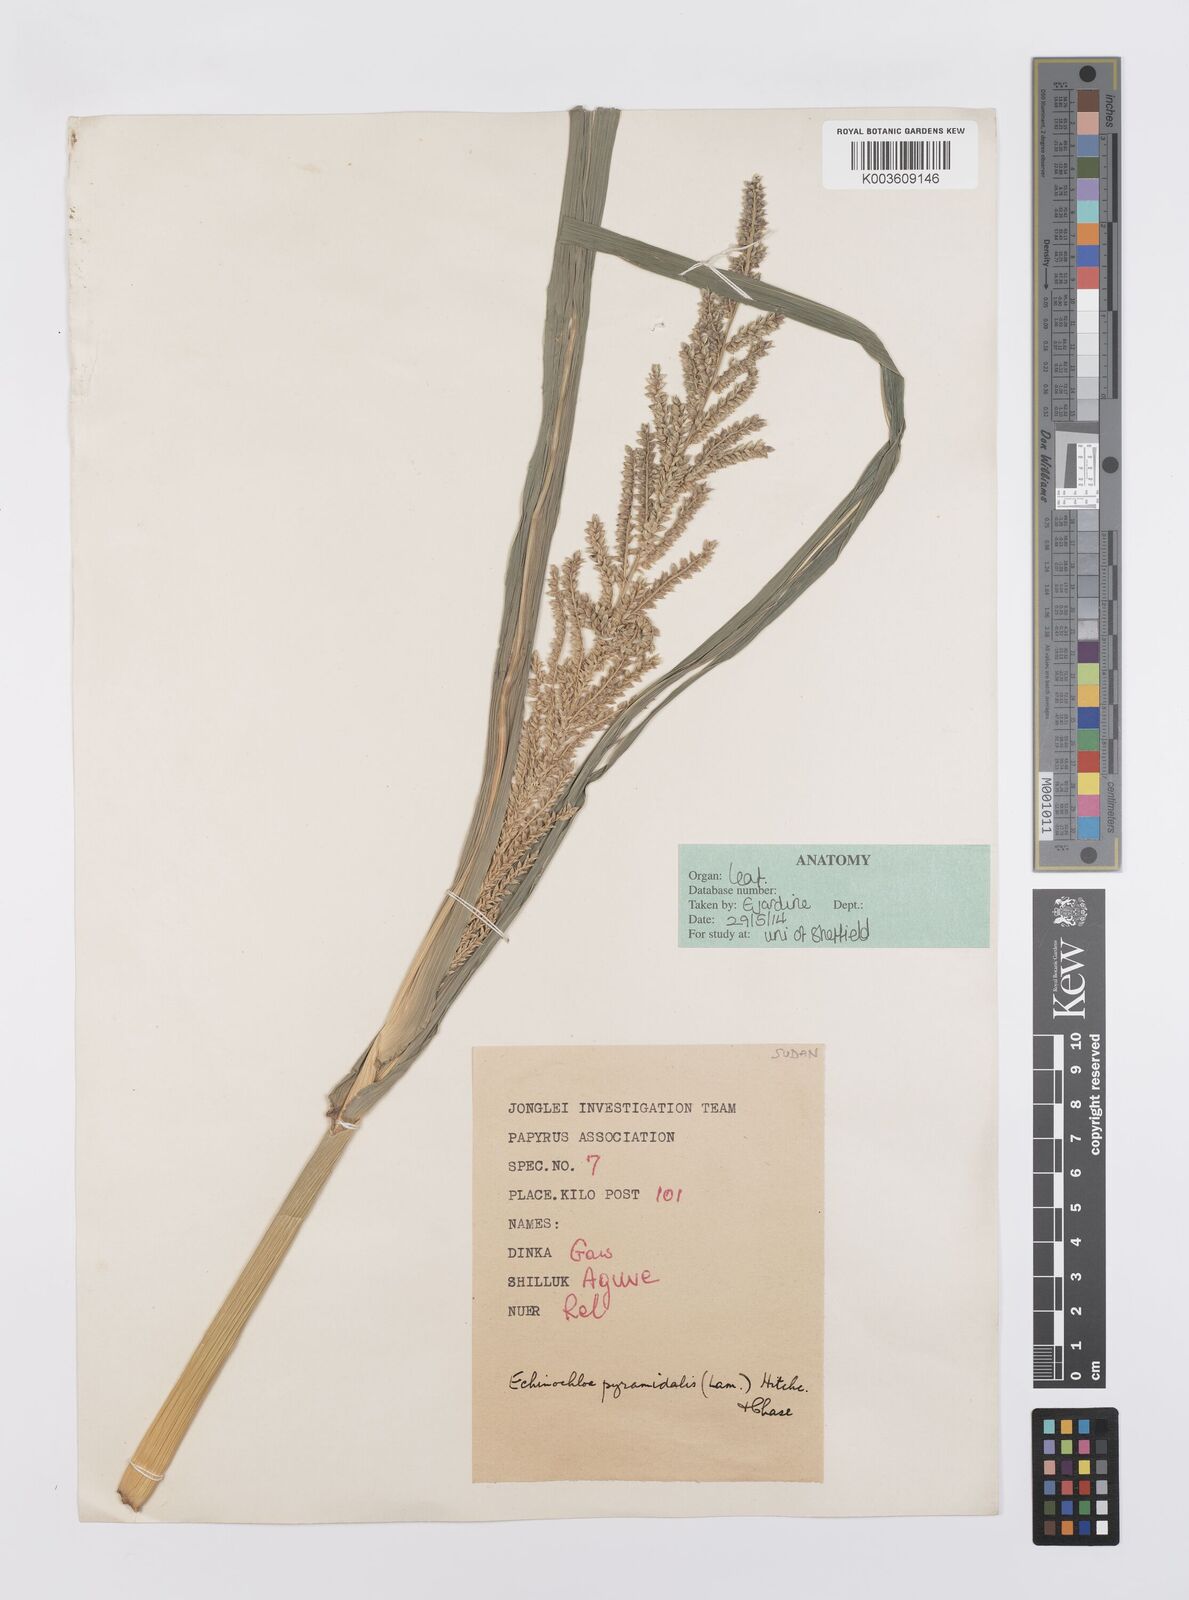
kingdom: Plantae
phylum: Tracheophyta
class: Liliopsida
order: Poales
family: Poaceae
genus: Echinochloa
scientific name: Echinochloa pyramidalis
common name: Antelope grass
